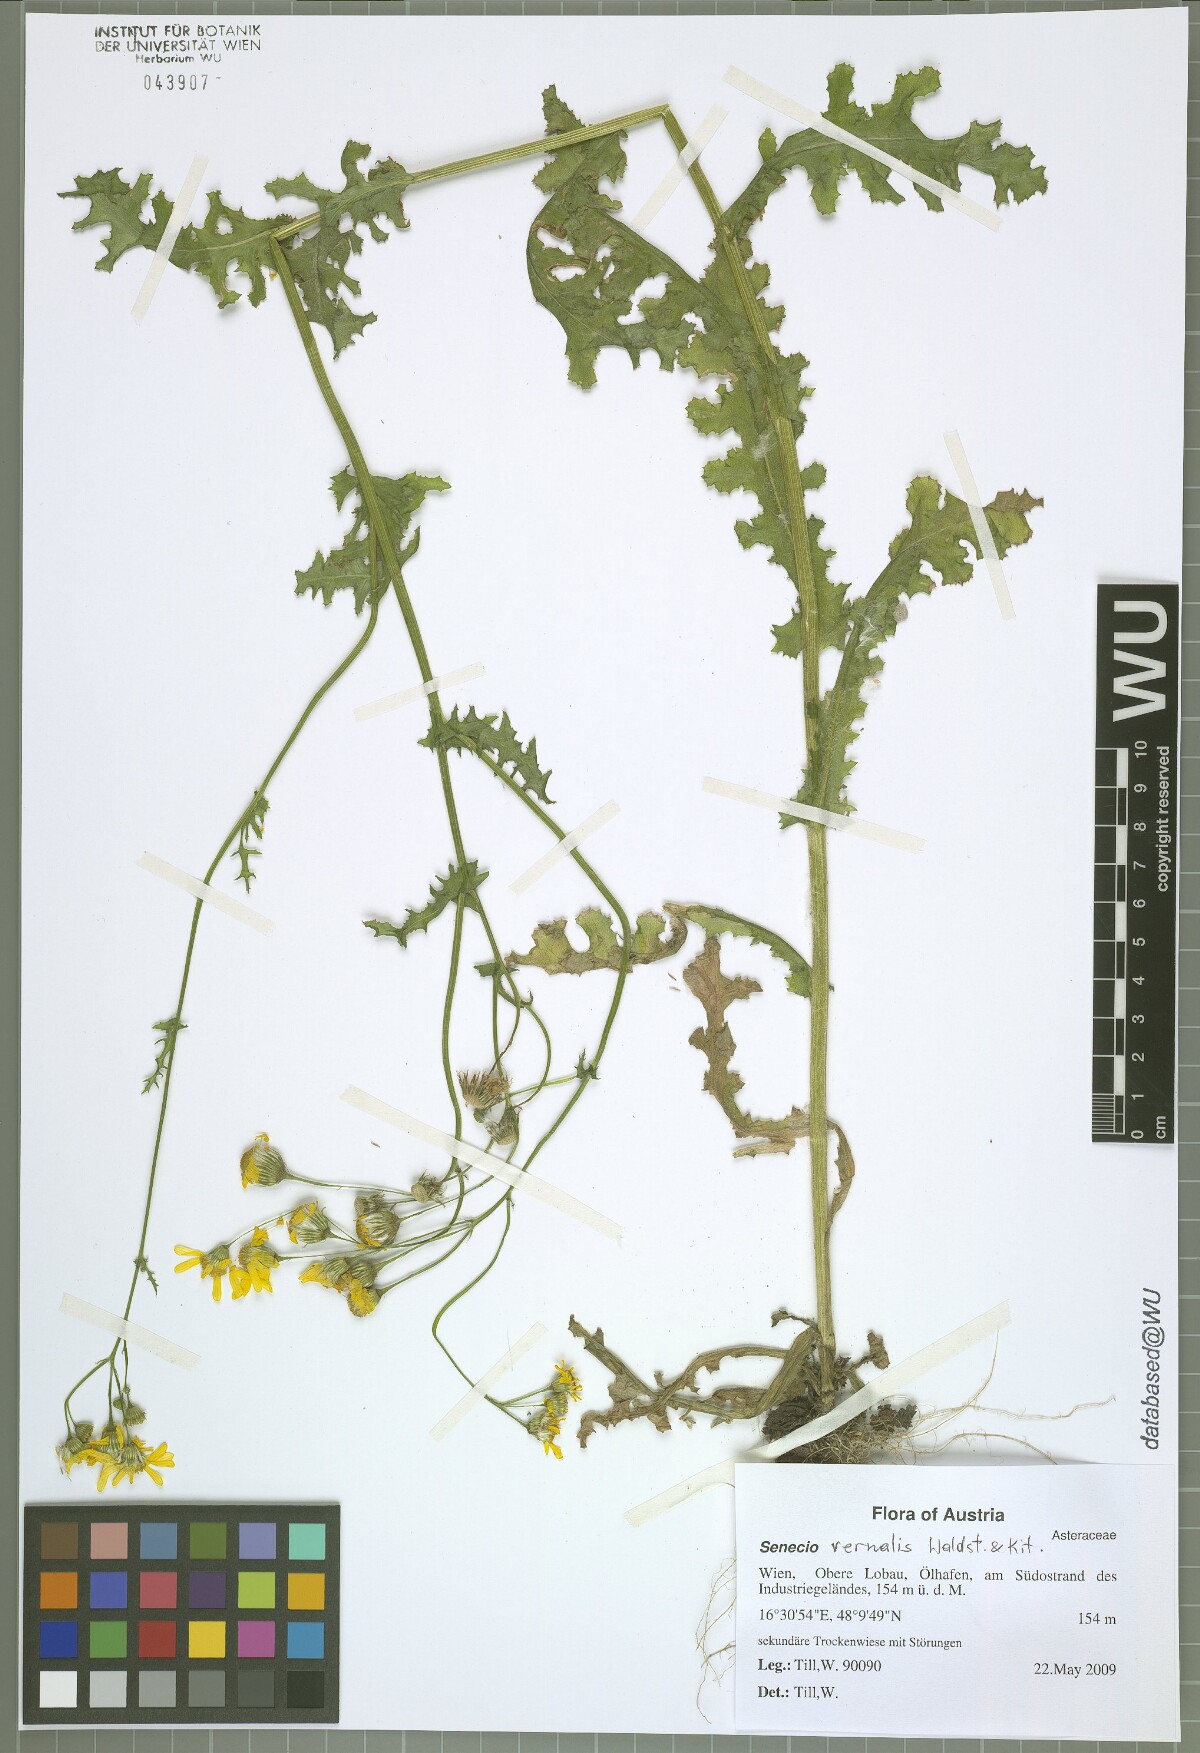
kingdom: Plantae
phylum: Tracheophyta
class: Magnoliopsida
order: Asterales
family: Asteraceae
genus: Senecio
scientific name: Senecio vernalis
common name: Eastern groundsel
